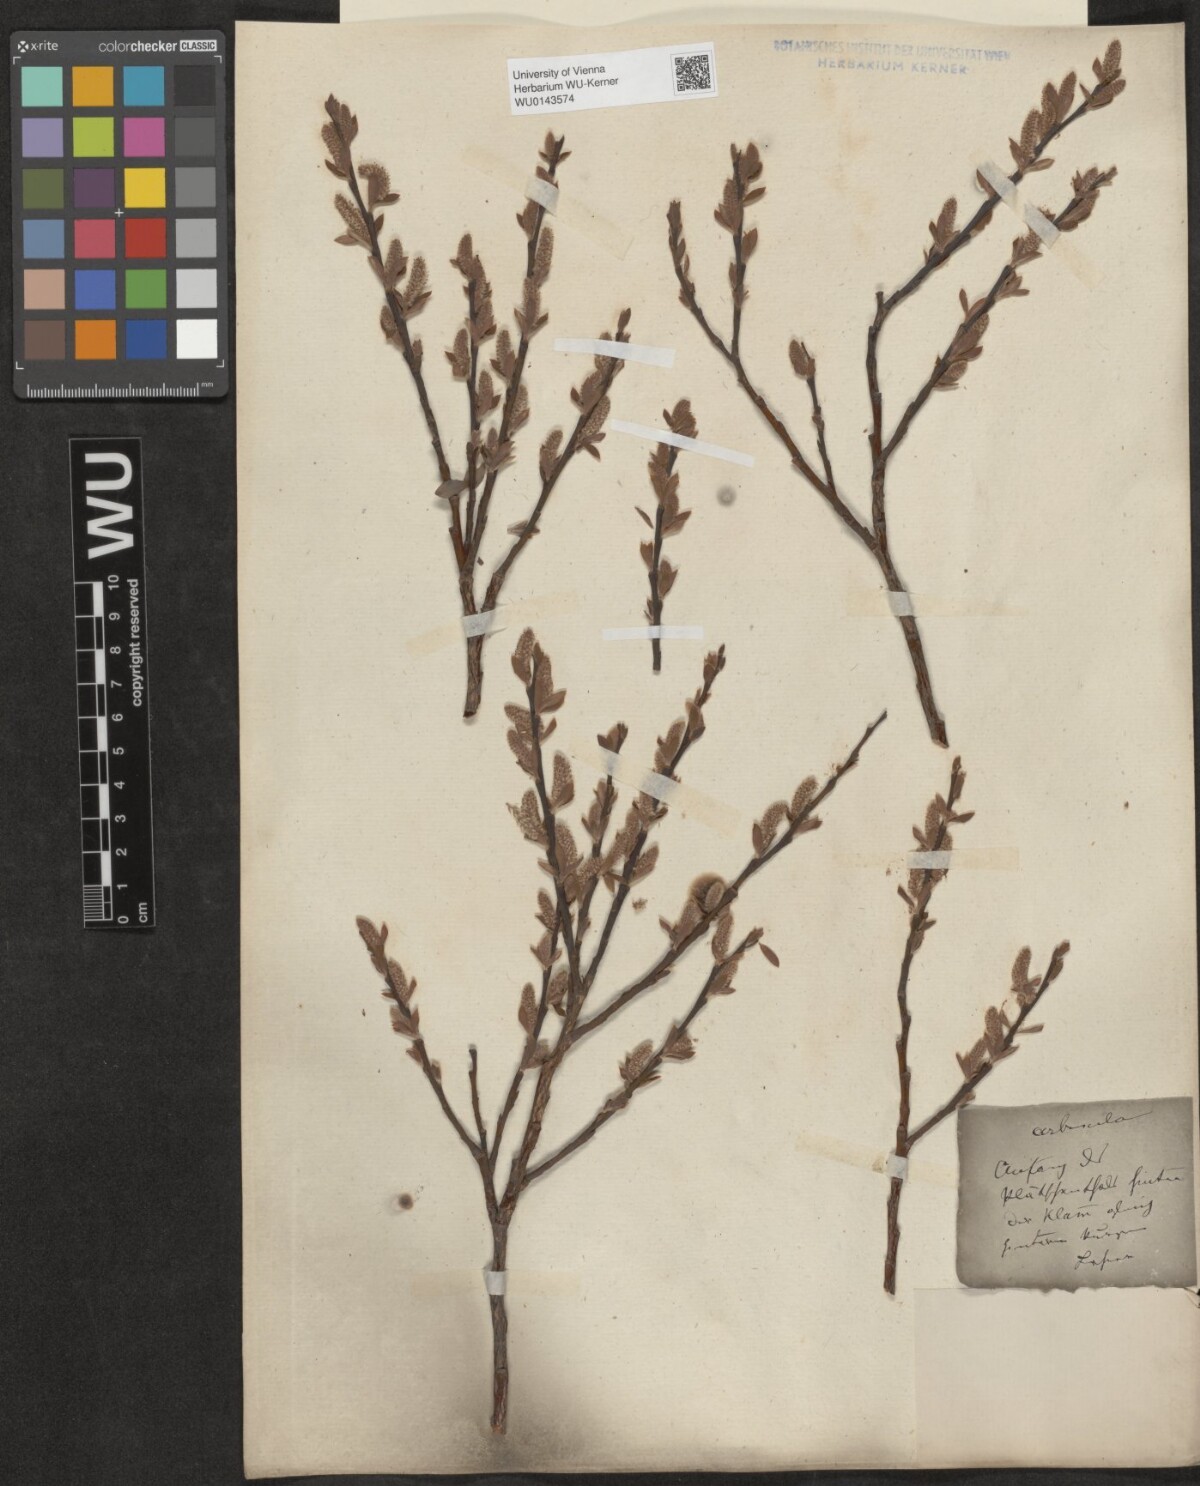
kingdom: Plantae
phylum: Tracheophyta
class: Magnoliopsida
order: Malpighiales
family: Salicaceae
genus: Salix
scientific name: Salix waldsteiniana
